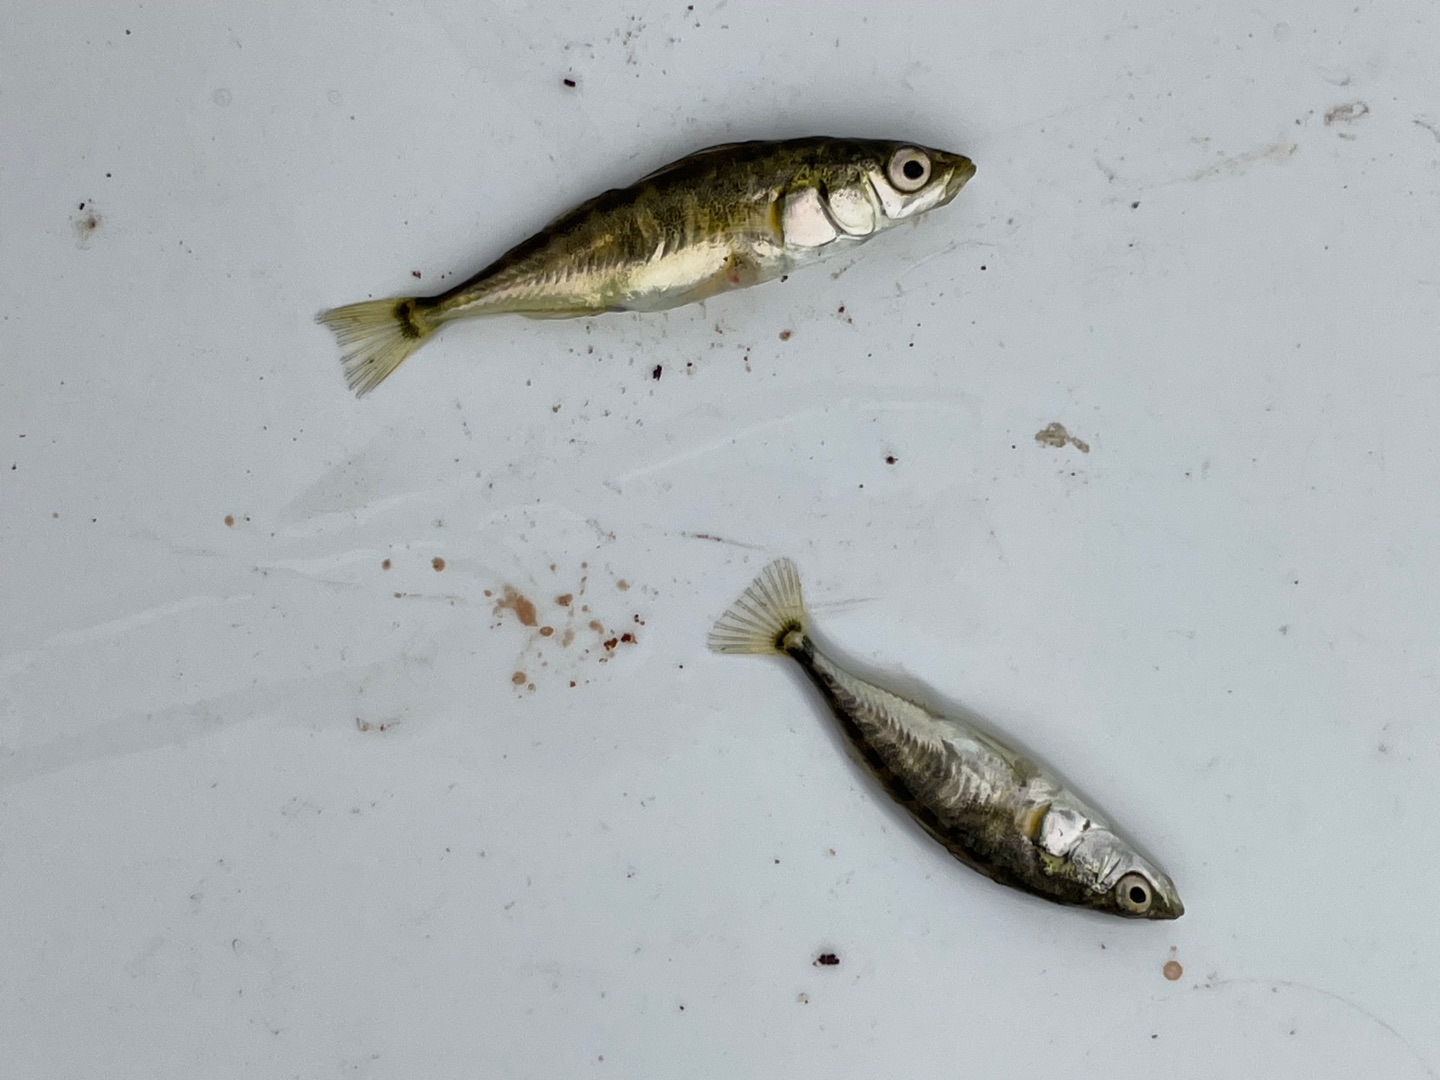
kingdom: Animalia
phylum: Chordata
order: Gasterosteiformes
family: Gasterosteidae
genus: Gasterosteus
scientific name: Gasterosteus aculeatus
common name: Trepigget hundestejle
